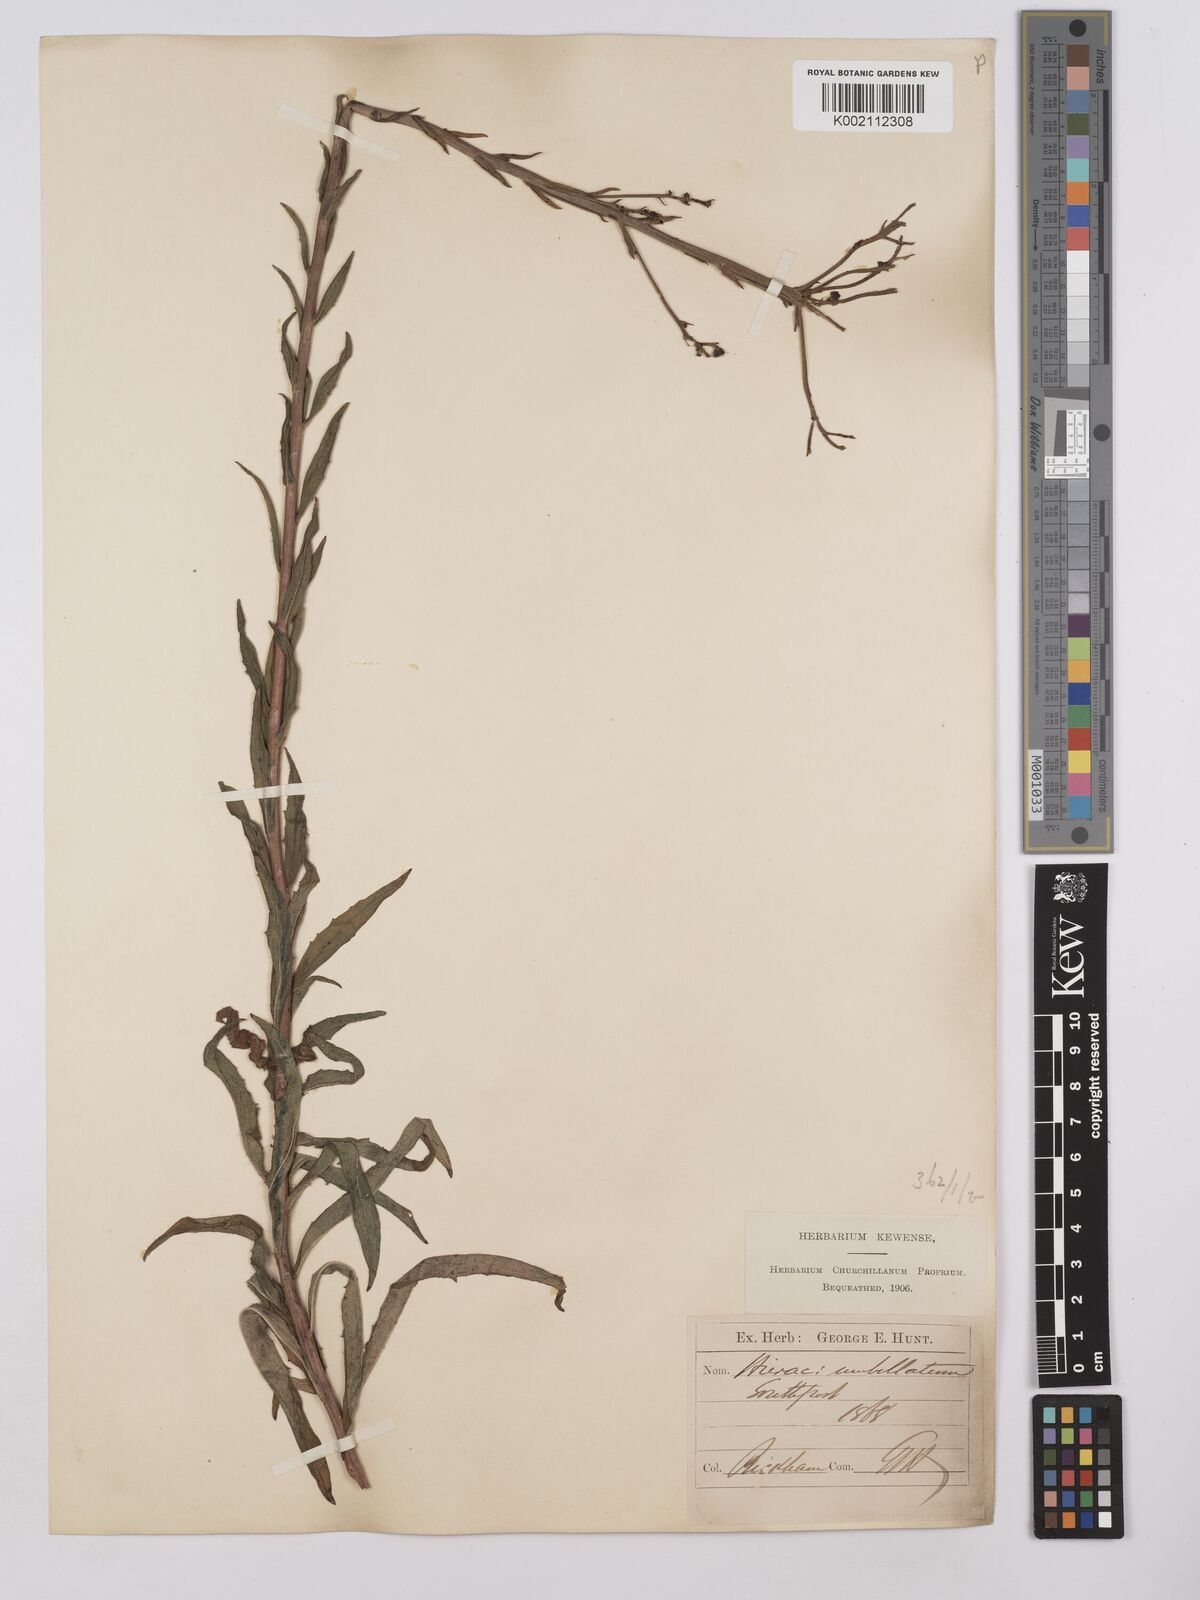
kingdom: Plantae
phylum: Tracheophyta
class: Magnoliopsida
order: Asterales
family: Asteraceae
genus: Hieracium
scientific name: Hieracium umbellatum
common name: Northern hawkweed
